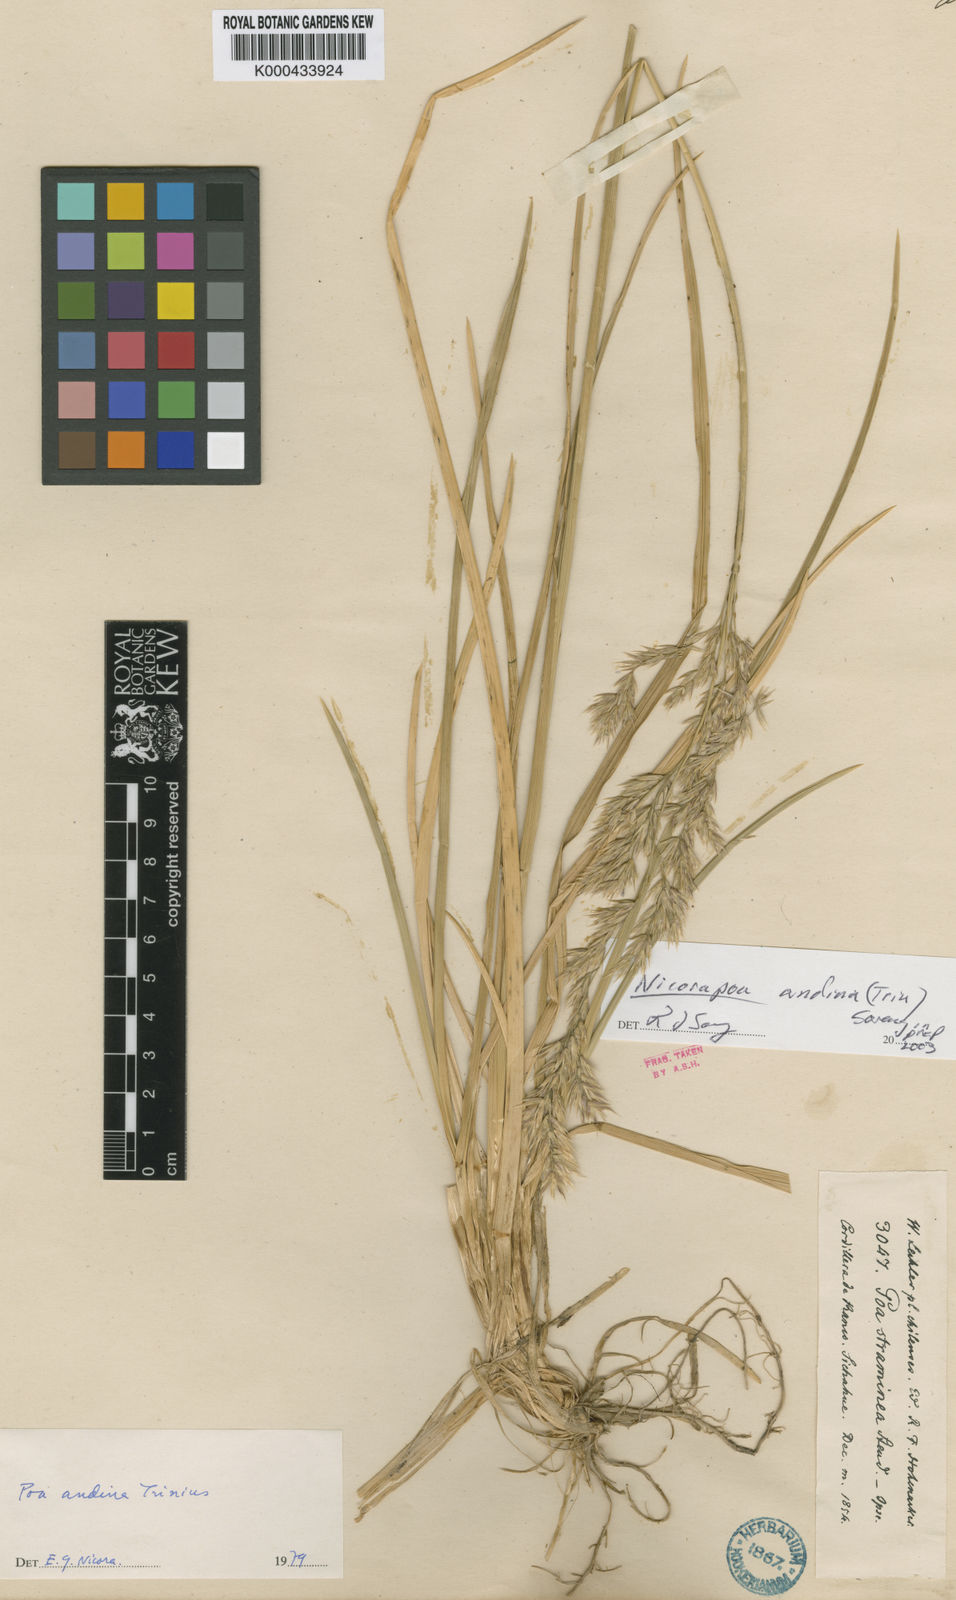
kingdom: Plantae
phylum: Tracheophyta
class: Liliopsida
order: Poales
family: Poaceae
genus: Nicoraepoa
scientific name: Nicoraepoa andina
